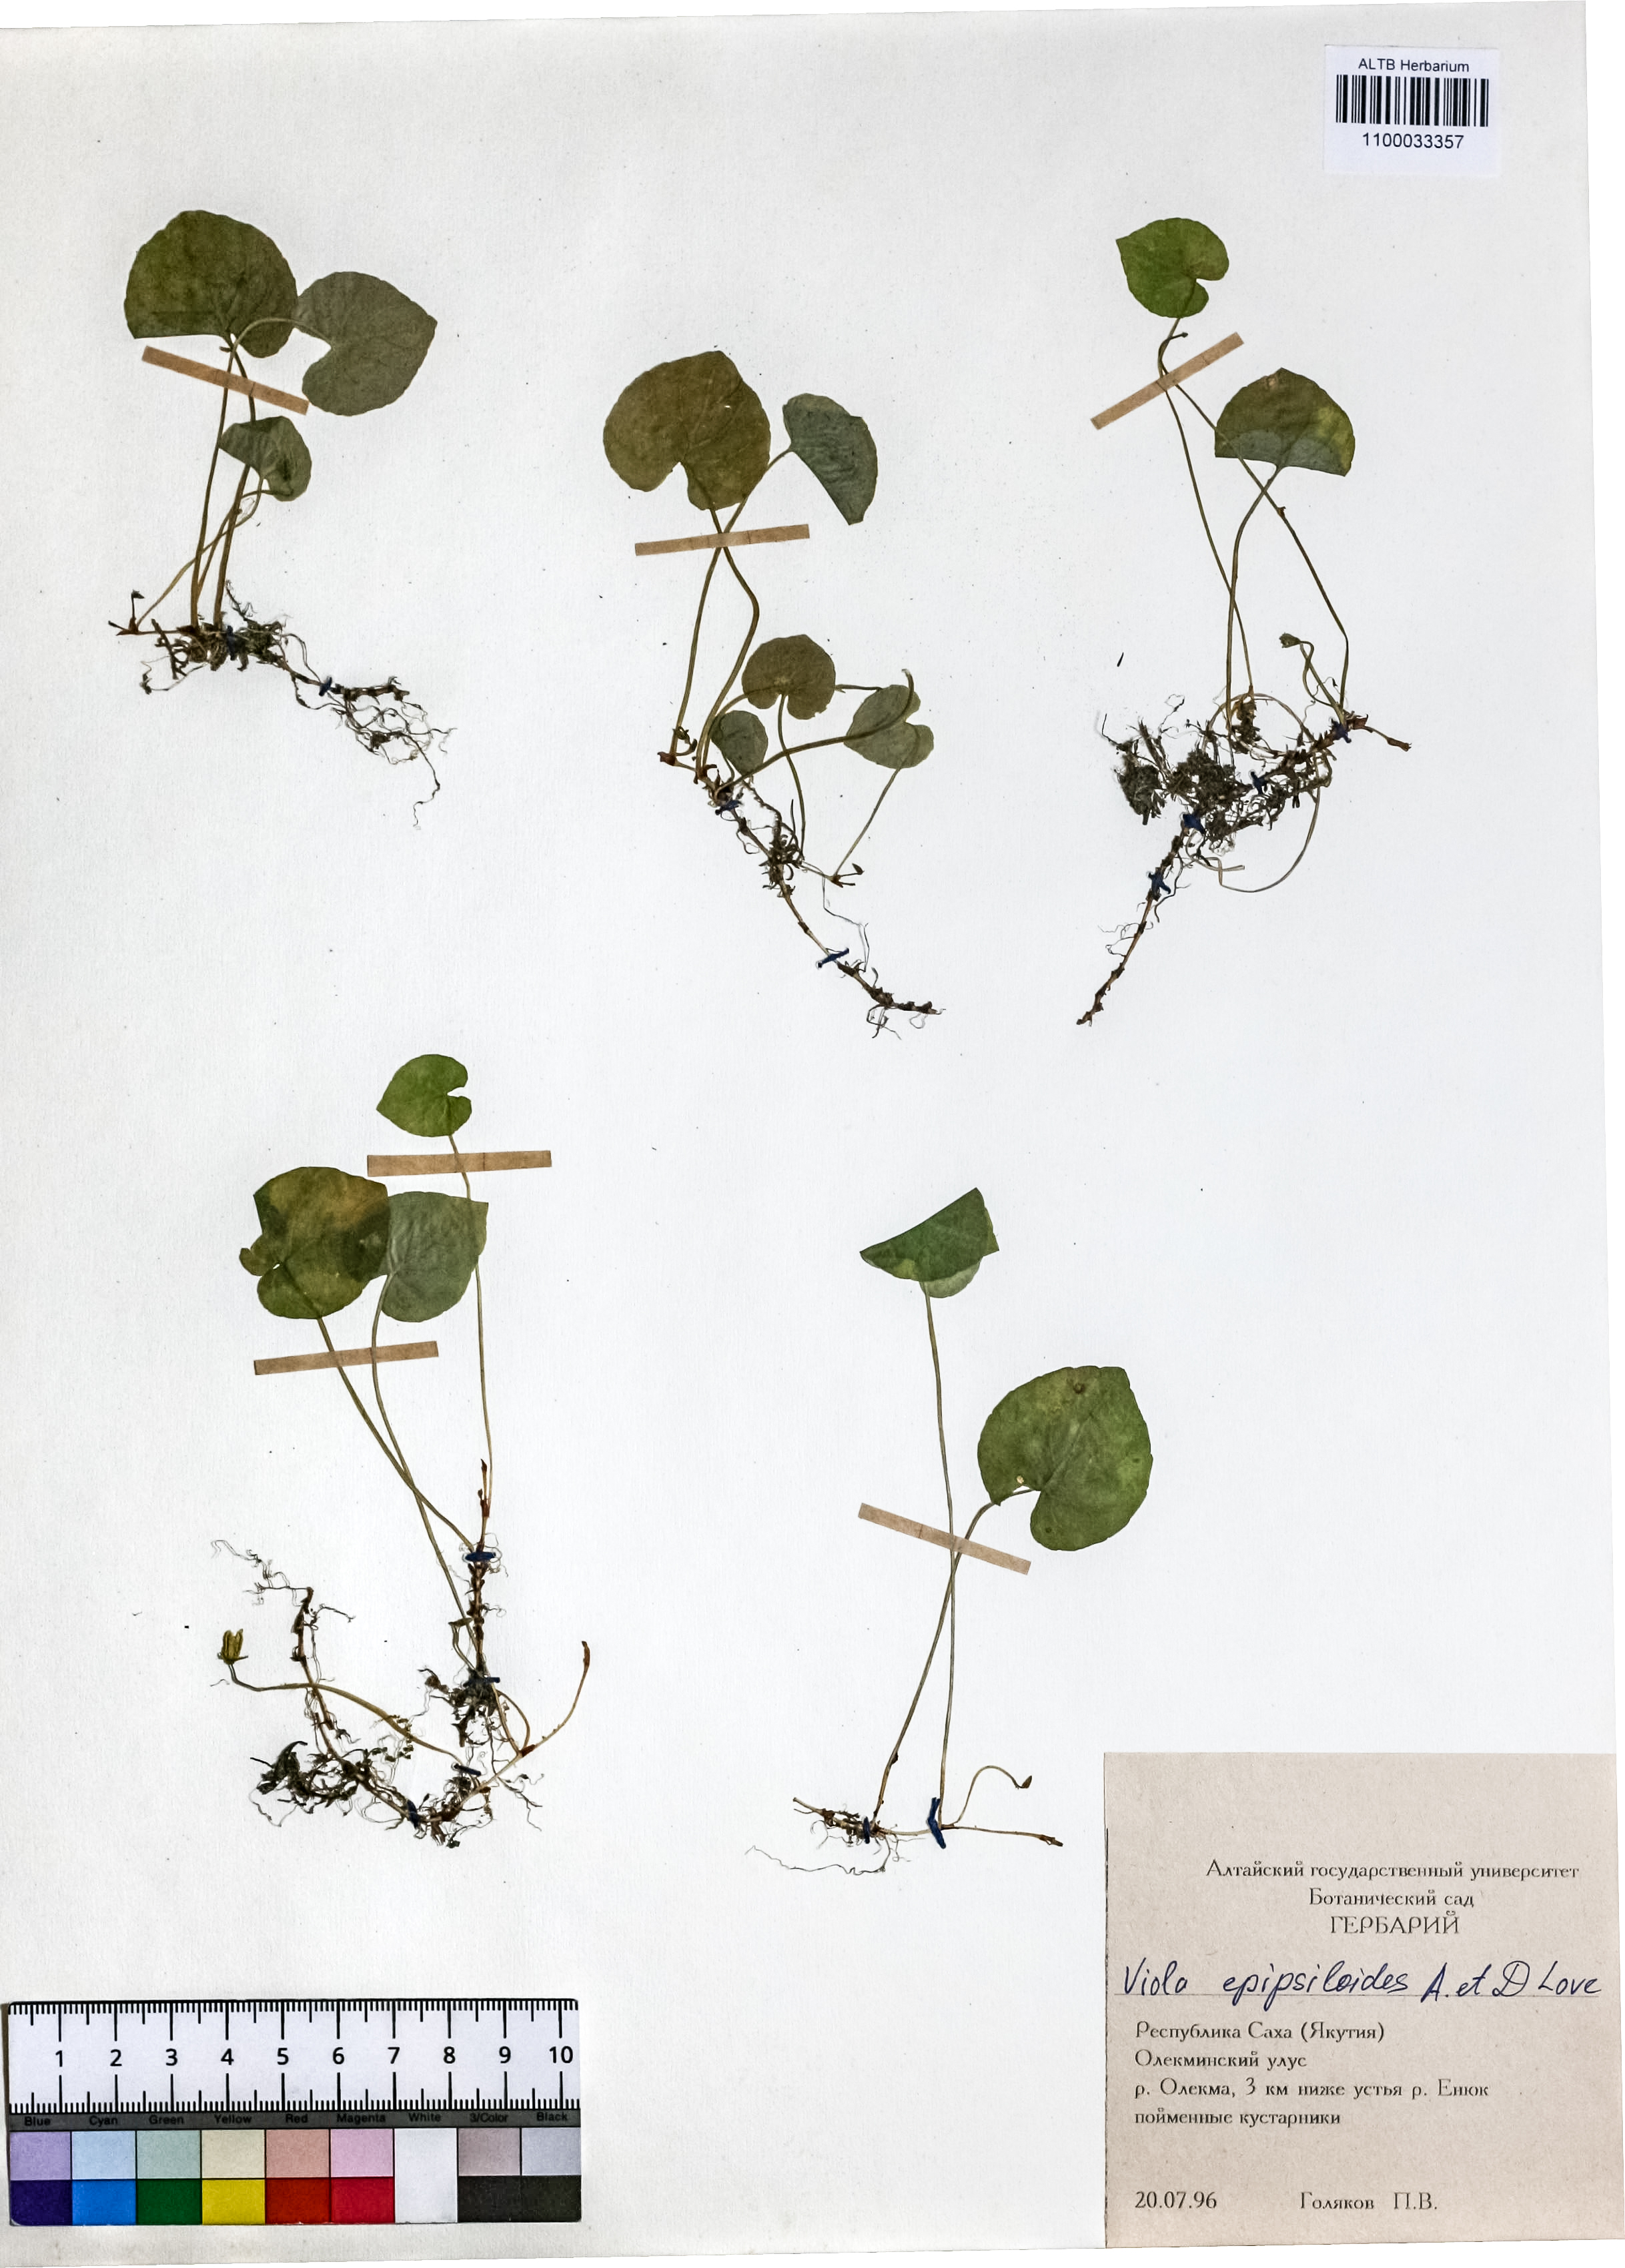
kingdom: Plantae
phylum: Tracheophyta
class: Magnoliopsida
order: Malpighiales
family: Violaceae
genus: Viola
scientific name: Viola epipsila
